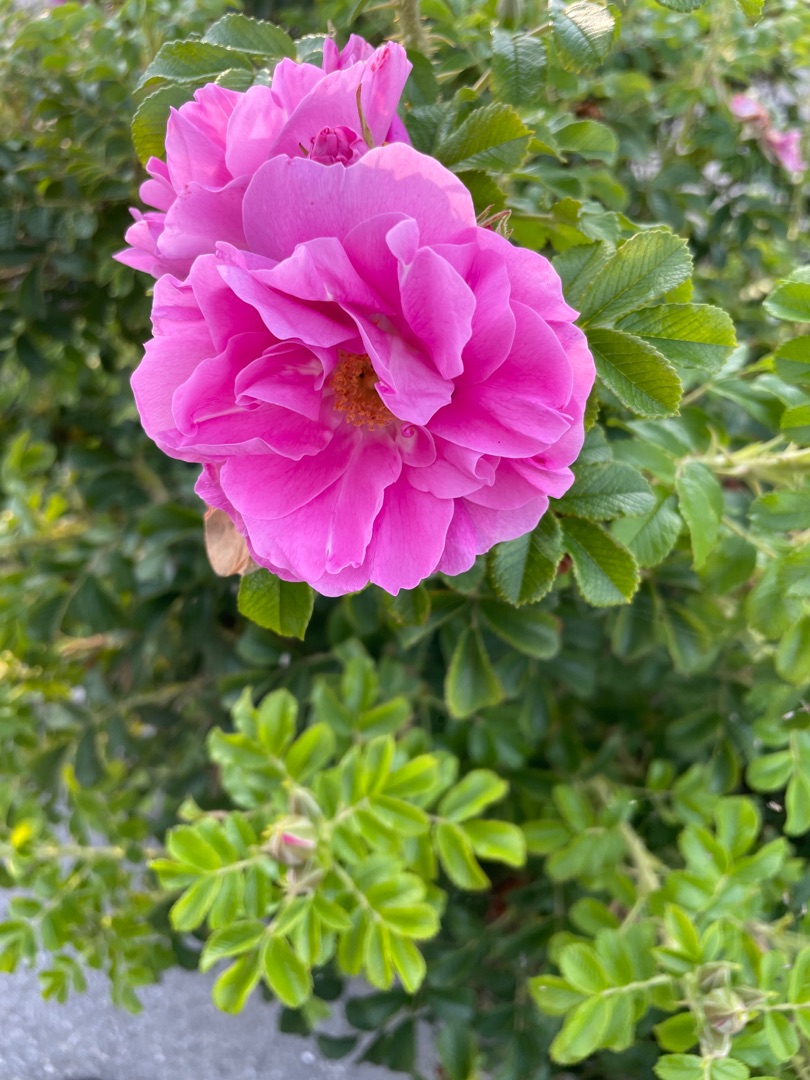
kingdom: Plantae
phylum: Tracheophyta
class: Magnoliopsida
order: Rosales
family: Rosaceae
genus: Rosa
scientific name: Rosa rugosa
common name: Rynket rose
